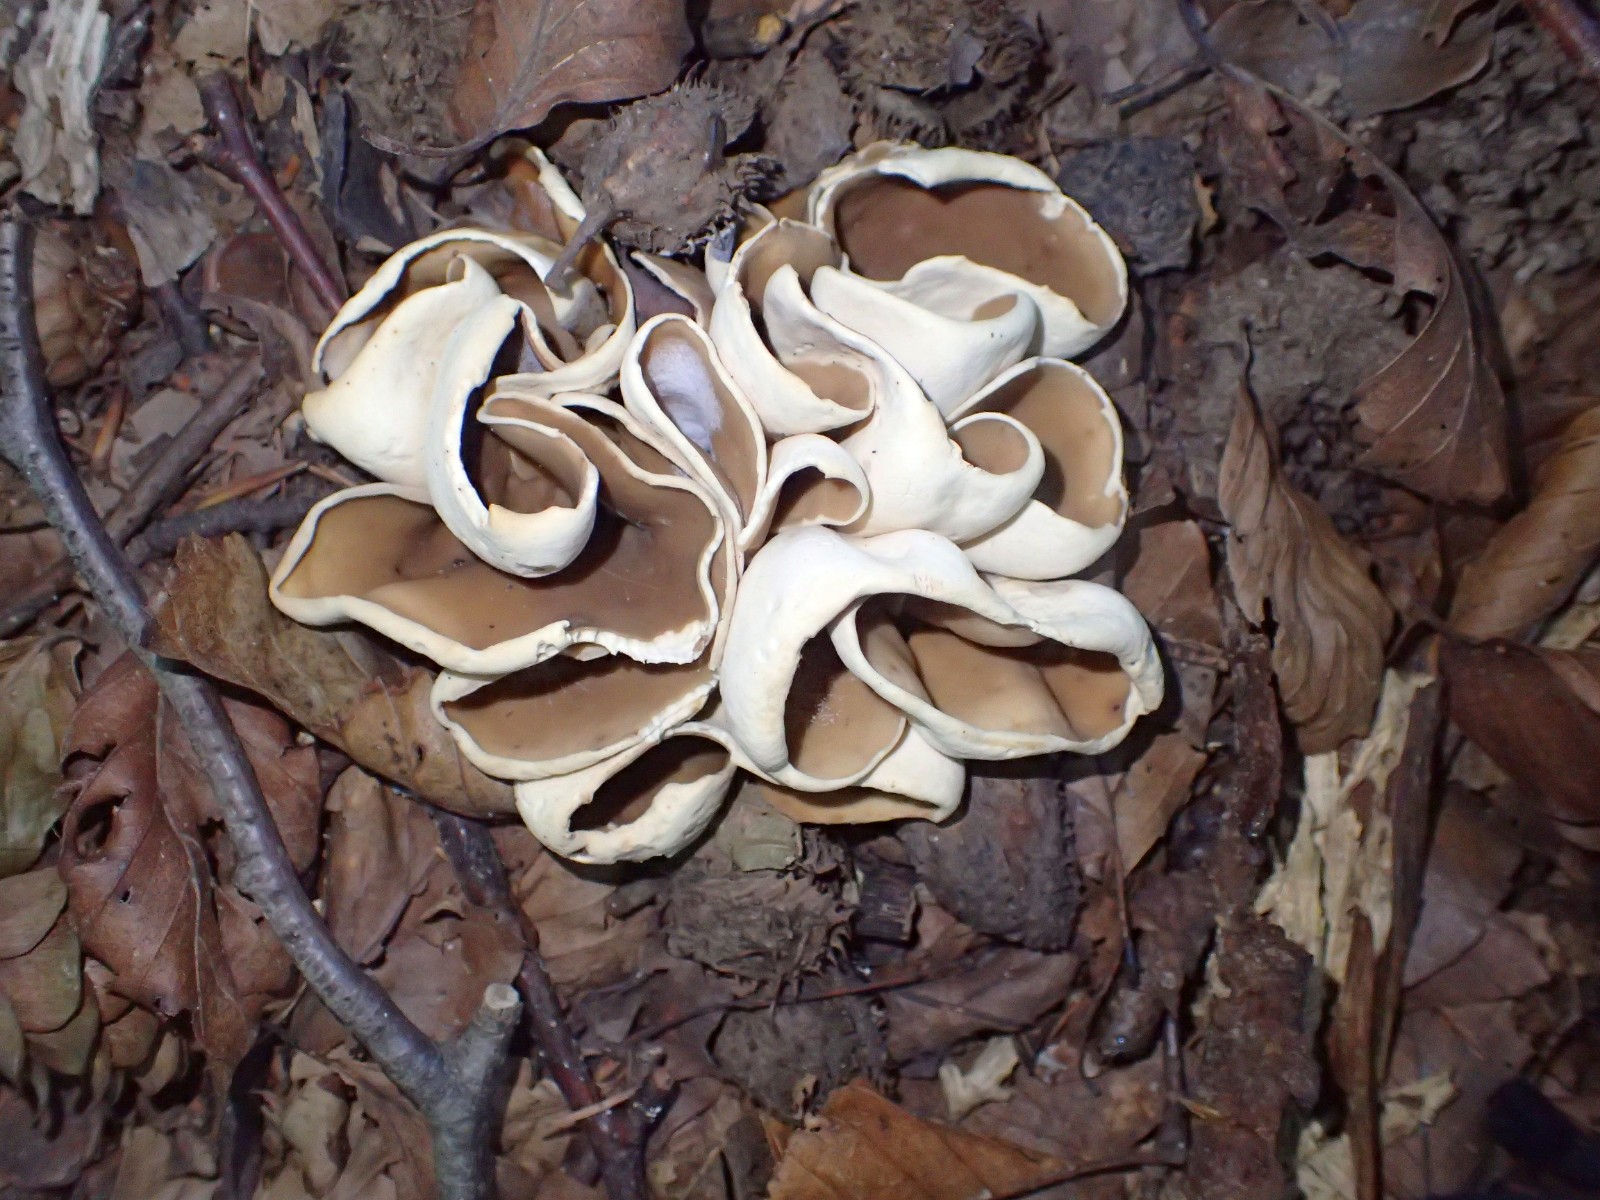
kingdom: Fungi
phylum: Ascomycota
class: Pezizomycetes
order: Pezizales
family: Otideaceae
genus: Otidea
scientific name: Otidea alutacea
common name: læder-ørebæger
